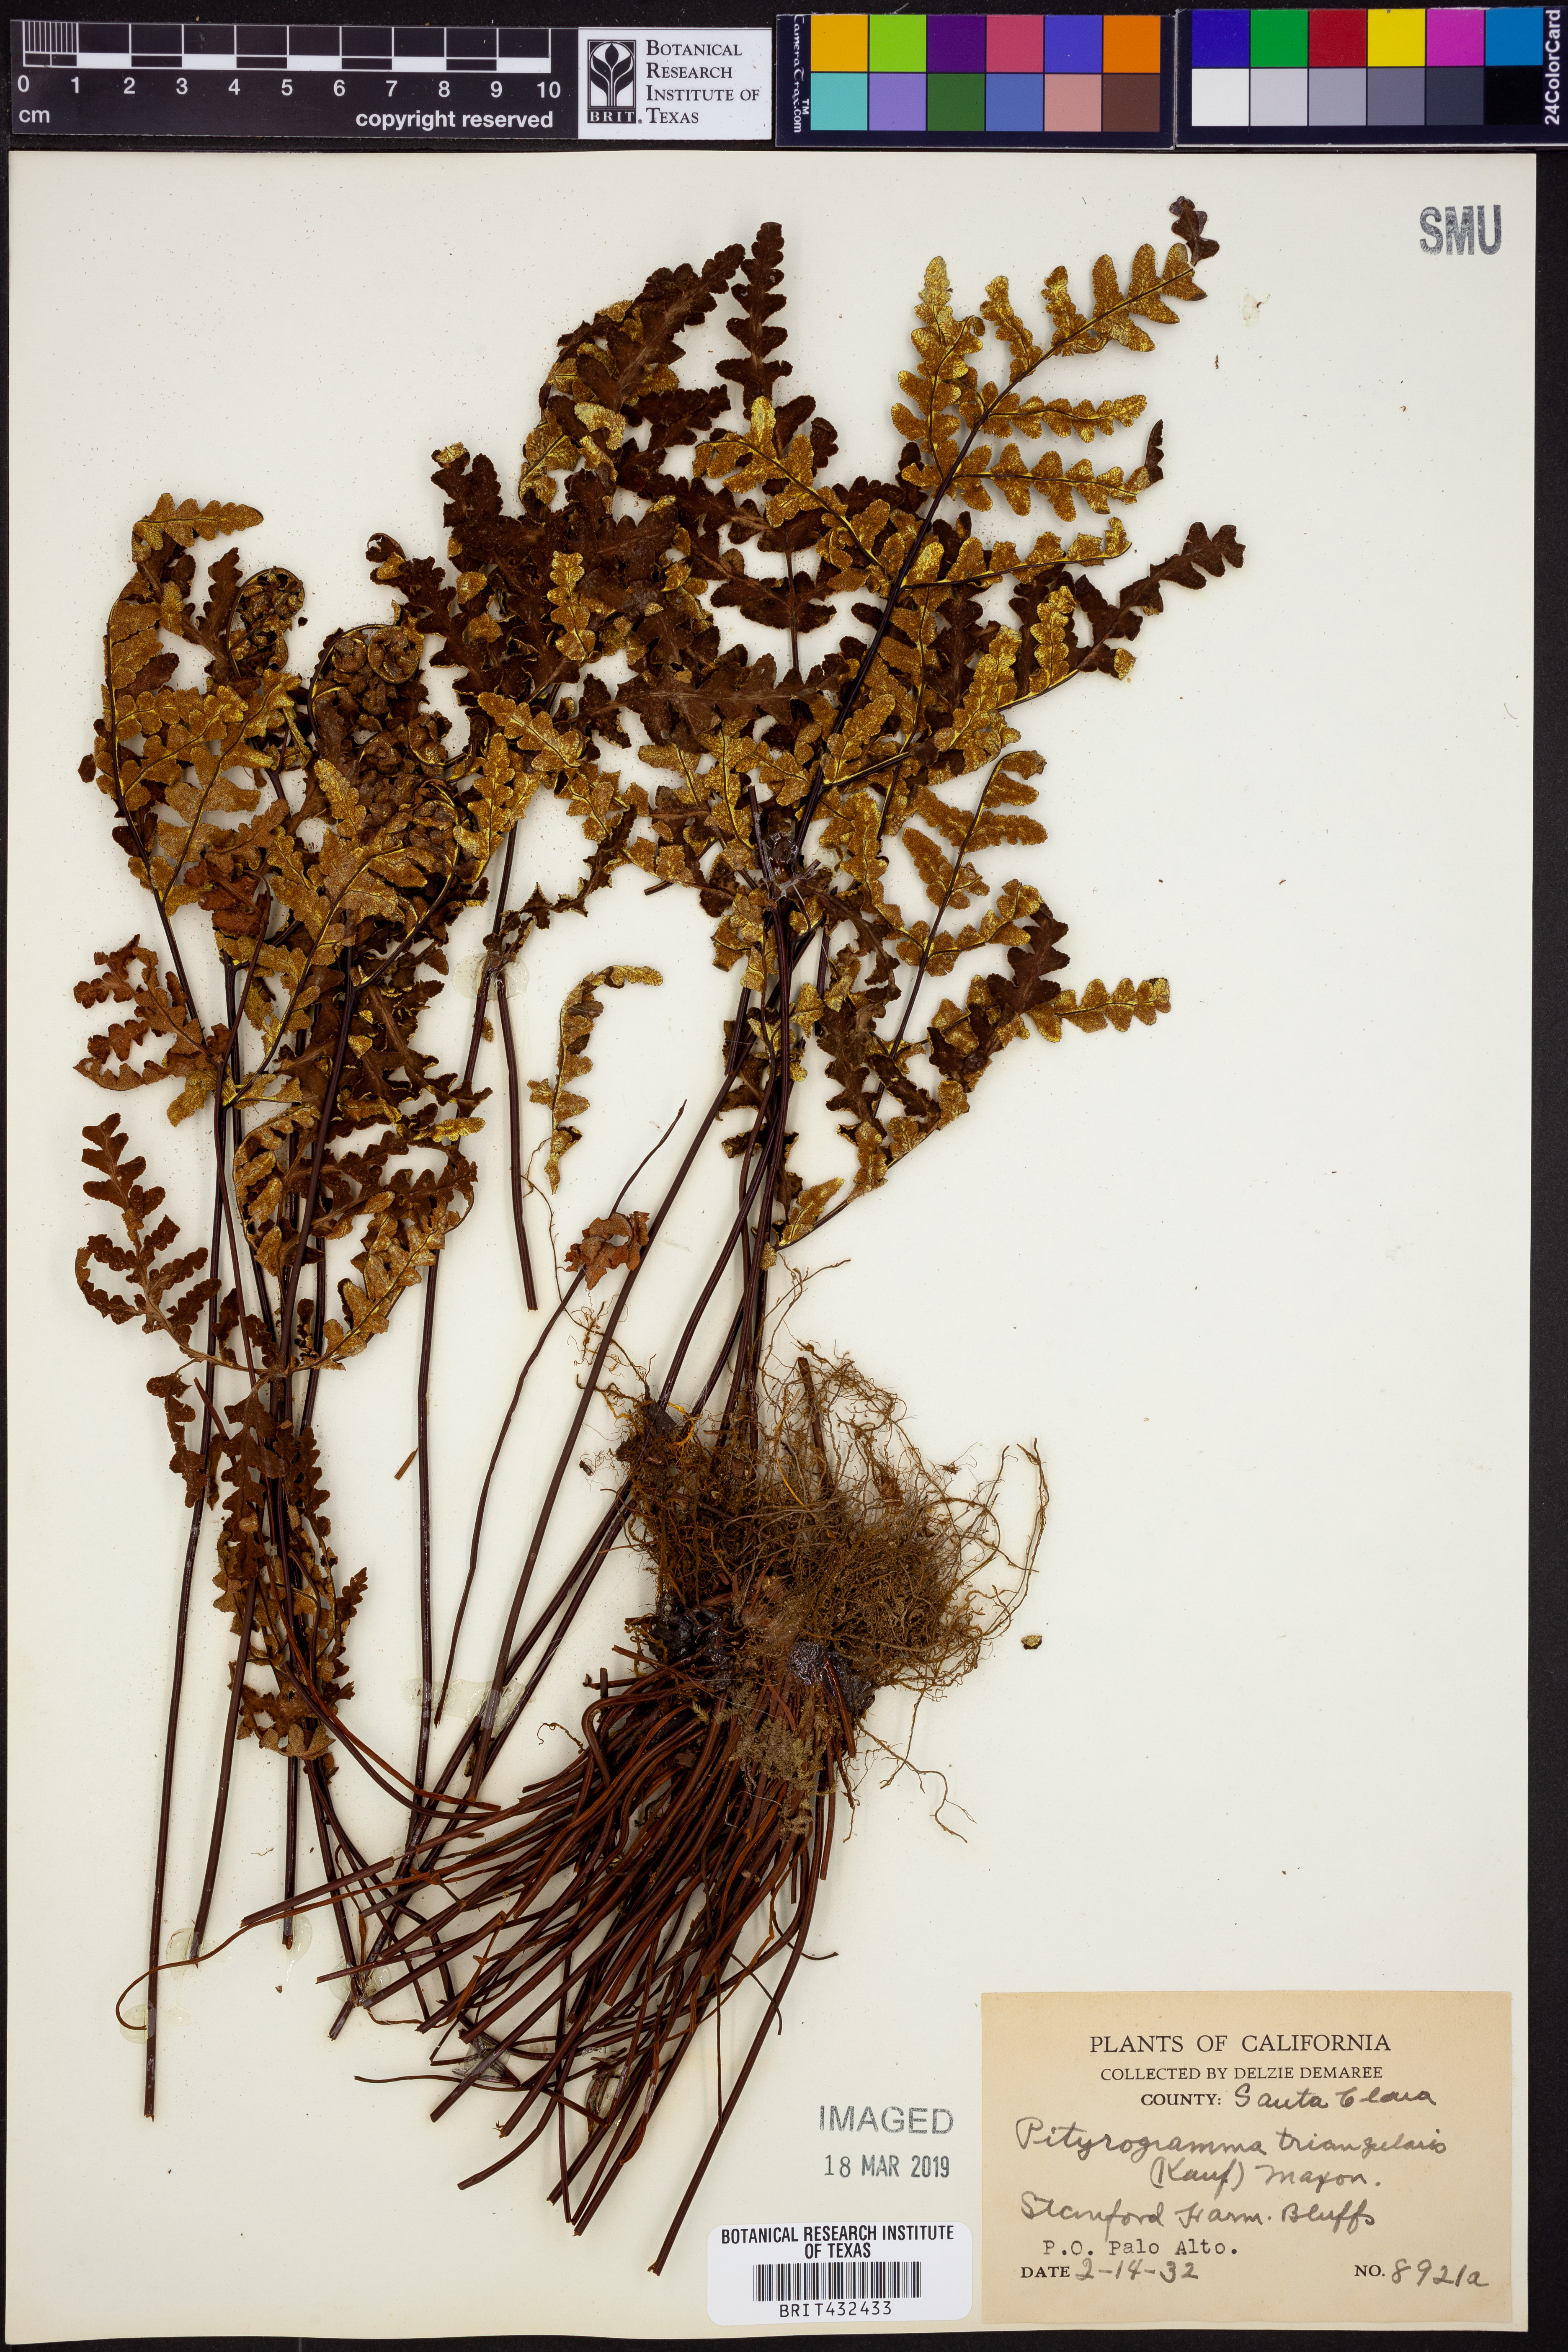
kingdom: Plantae
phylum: Tracheophyta
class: Polypodiopsida
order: Polypodiales
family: Pteridaceae
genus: Pentagramma
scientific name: Pentagramma triangularis
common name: Gold fern
